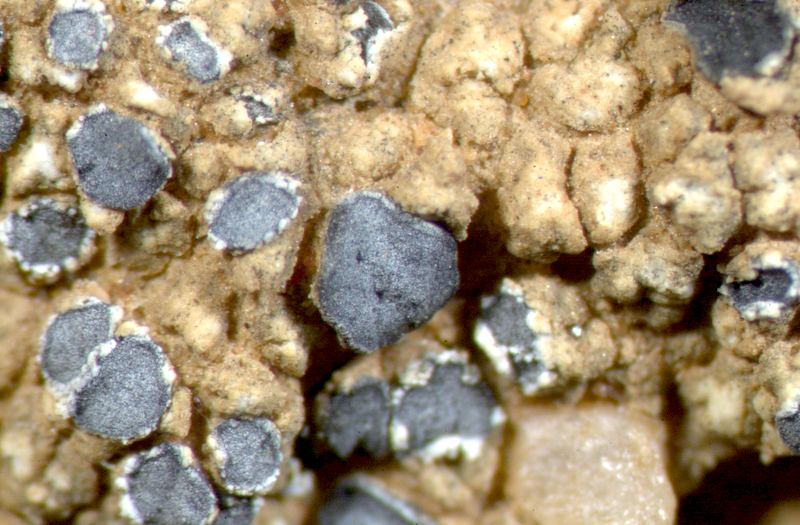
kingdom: Fungi
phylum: Ascomycota
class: Lecanoromycetes
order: Lecanorales
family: Ramalinaceae
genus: Bibbya
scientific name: Bibbya australis
